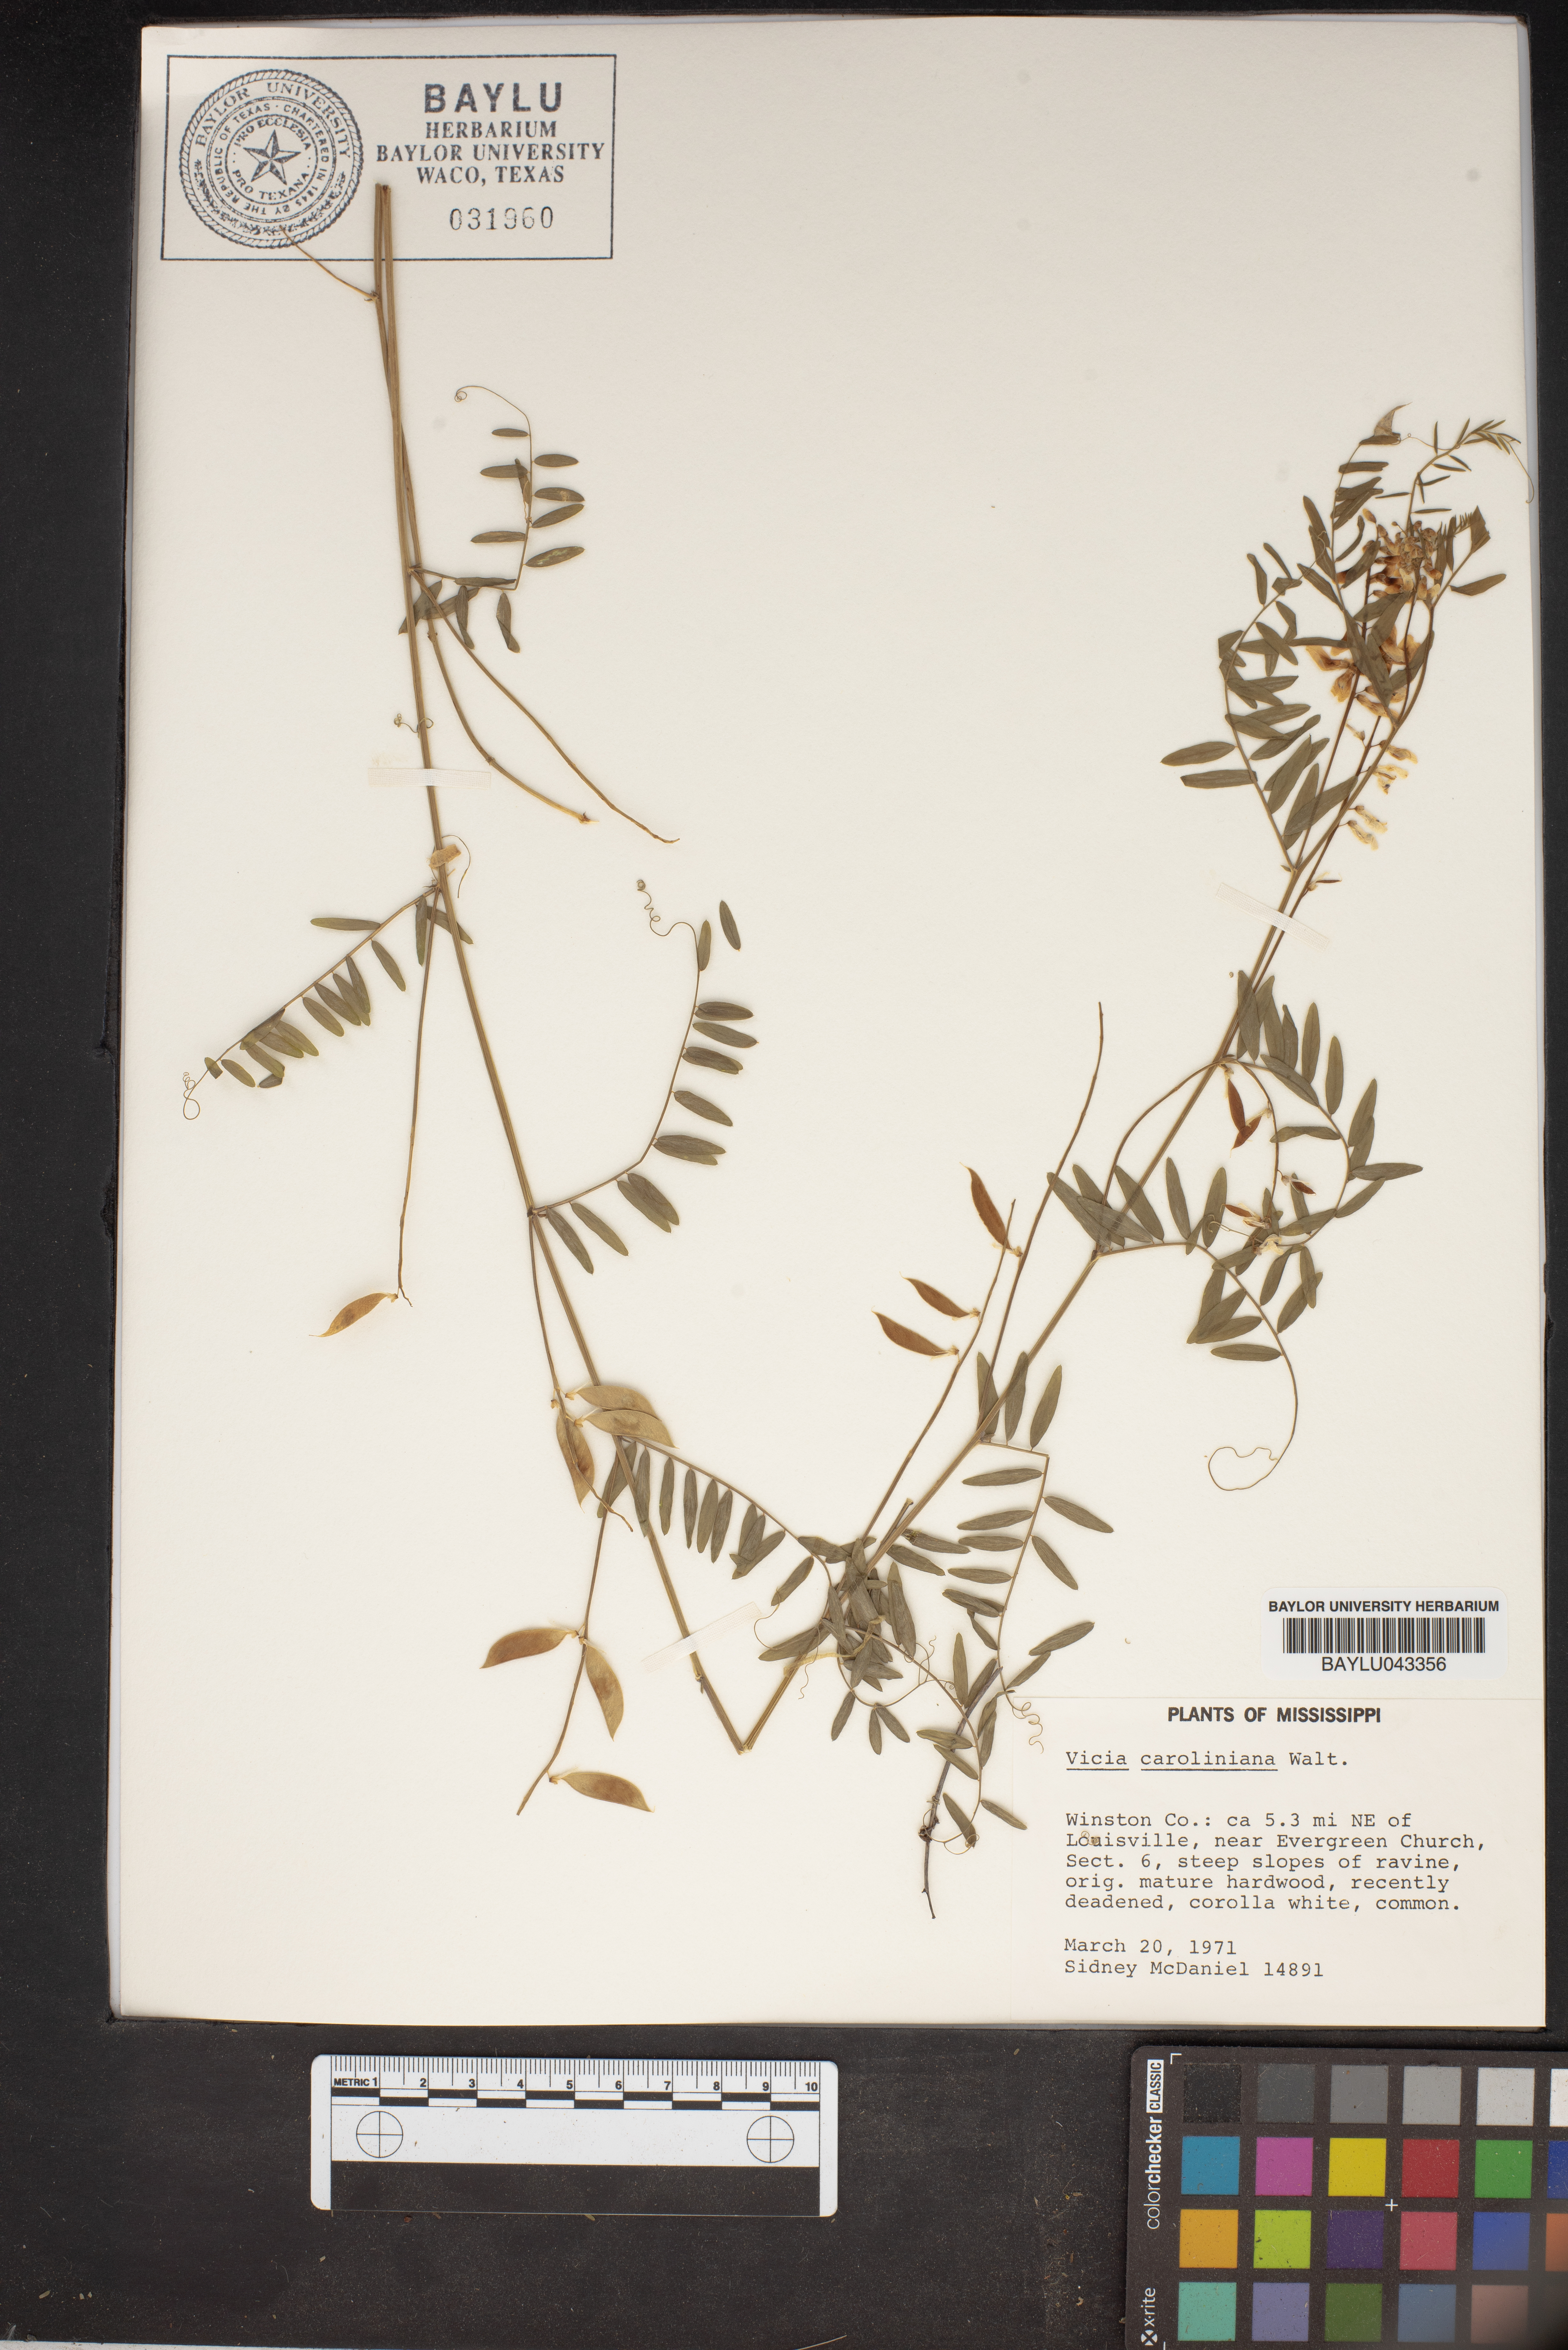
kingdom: Plantae
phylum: Tracheophyta
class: Magnoliopsida
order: Fabales
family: Fabaceae
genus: Vicia
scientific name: Vicia caroliniana
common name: Carolina vetch
